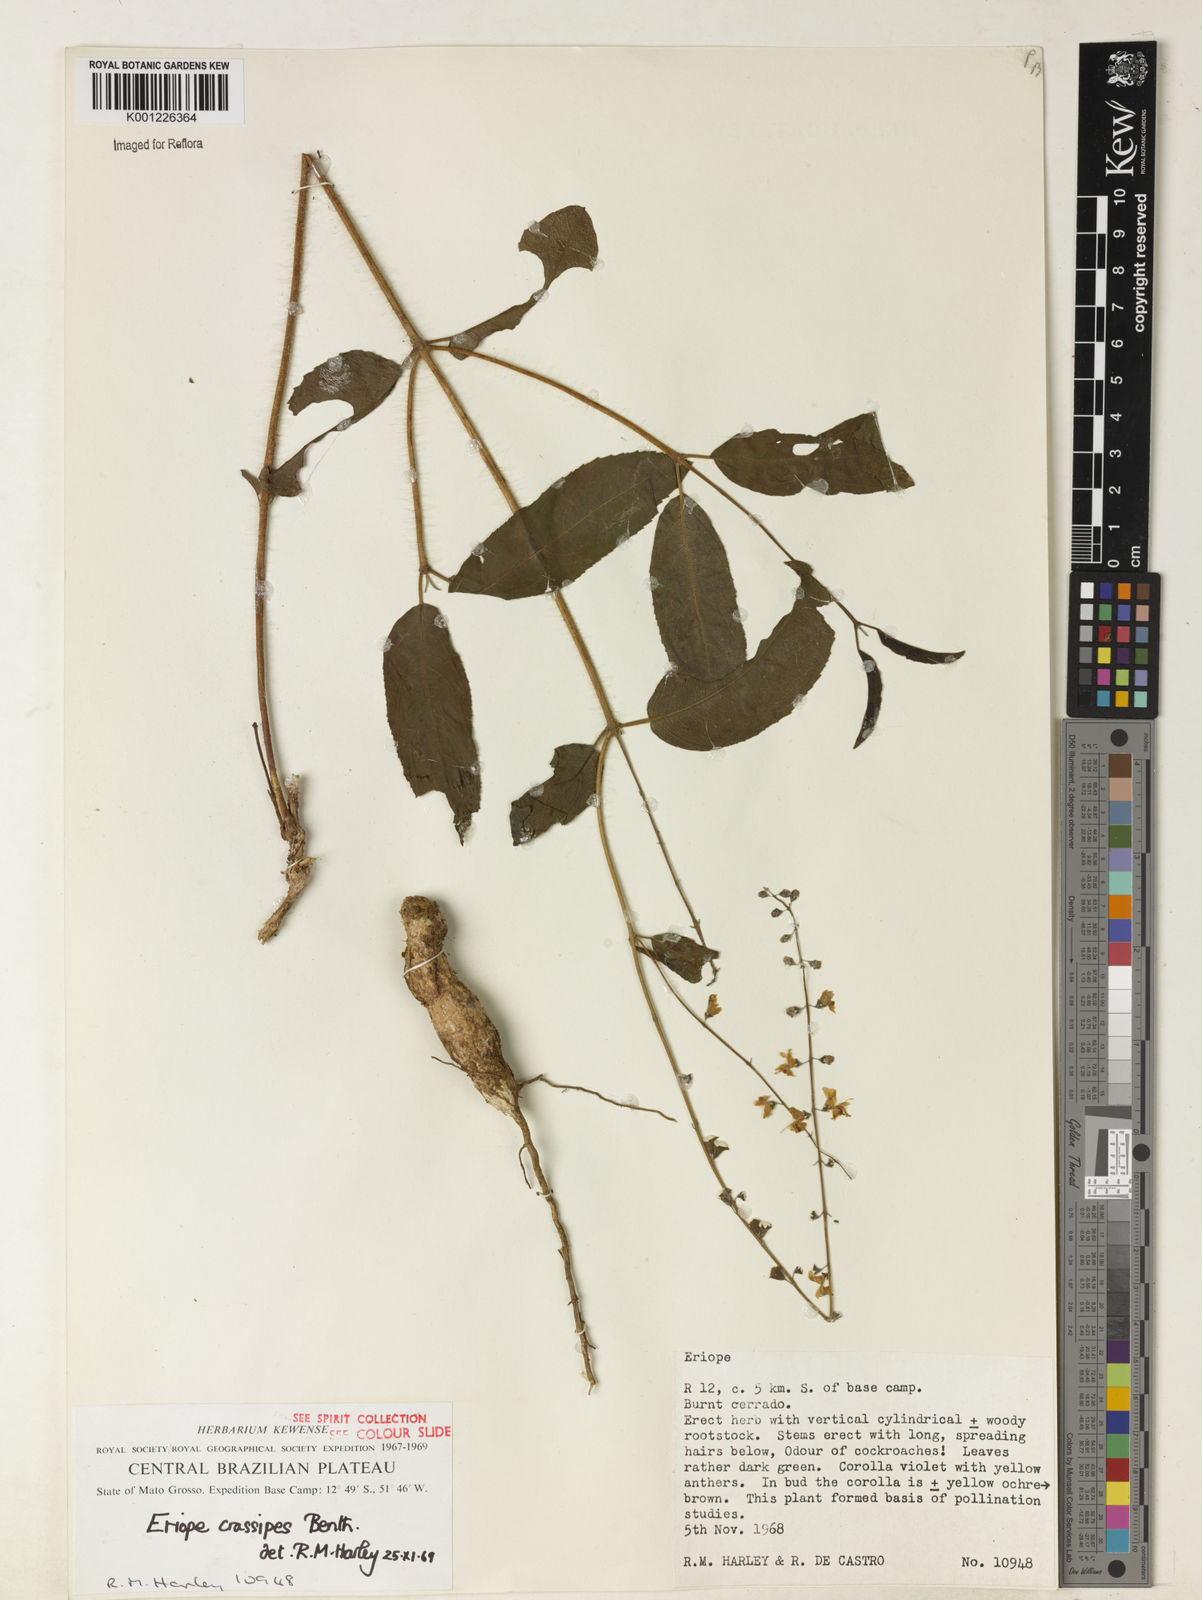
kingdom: Plantae
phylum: Tracheophyta
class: Magnoliopsida
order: Lamiales
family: Lamiaceae
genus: Eriope
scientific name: Eriope crassipes
